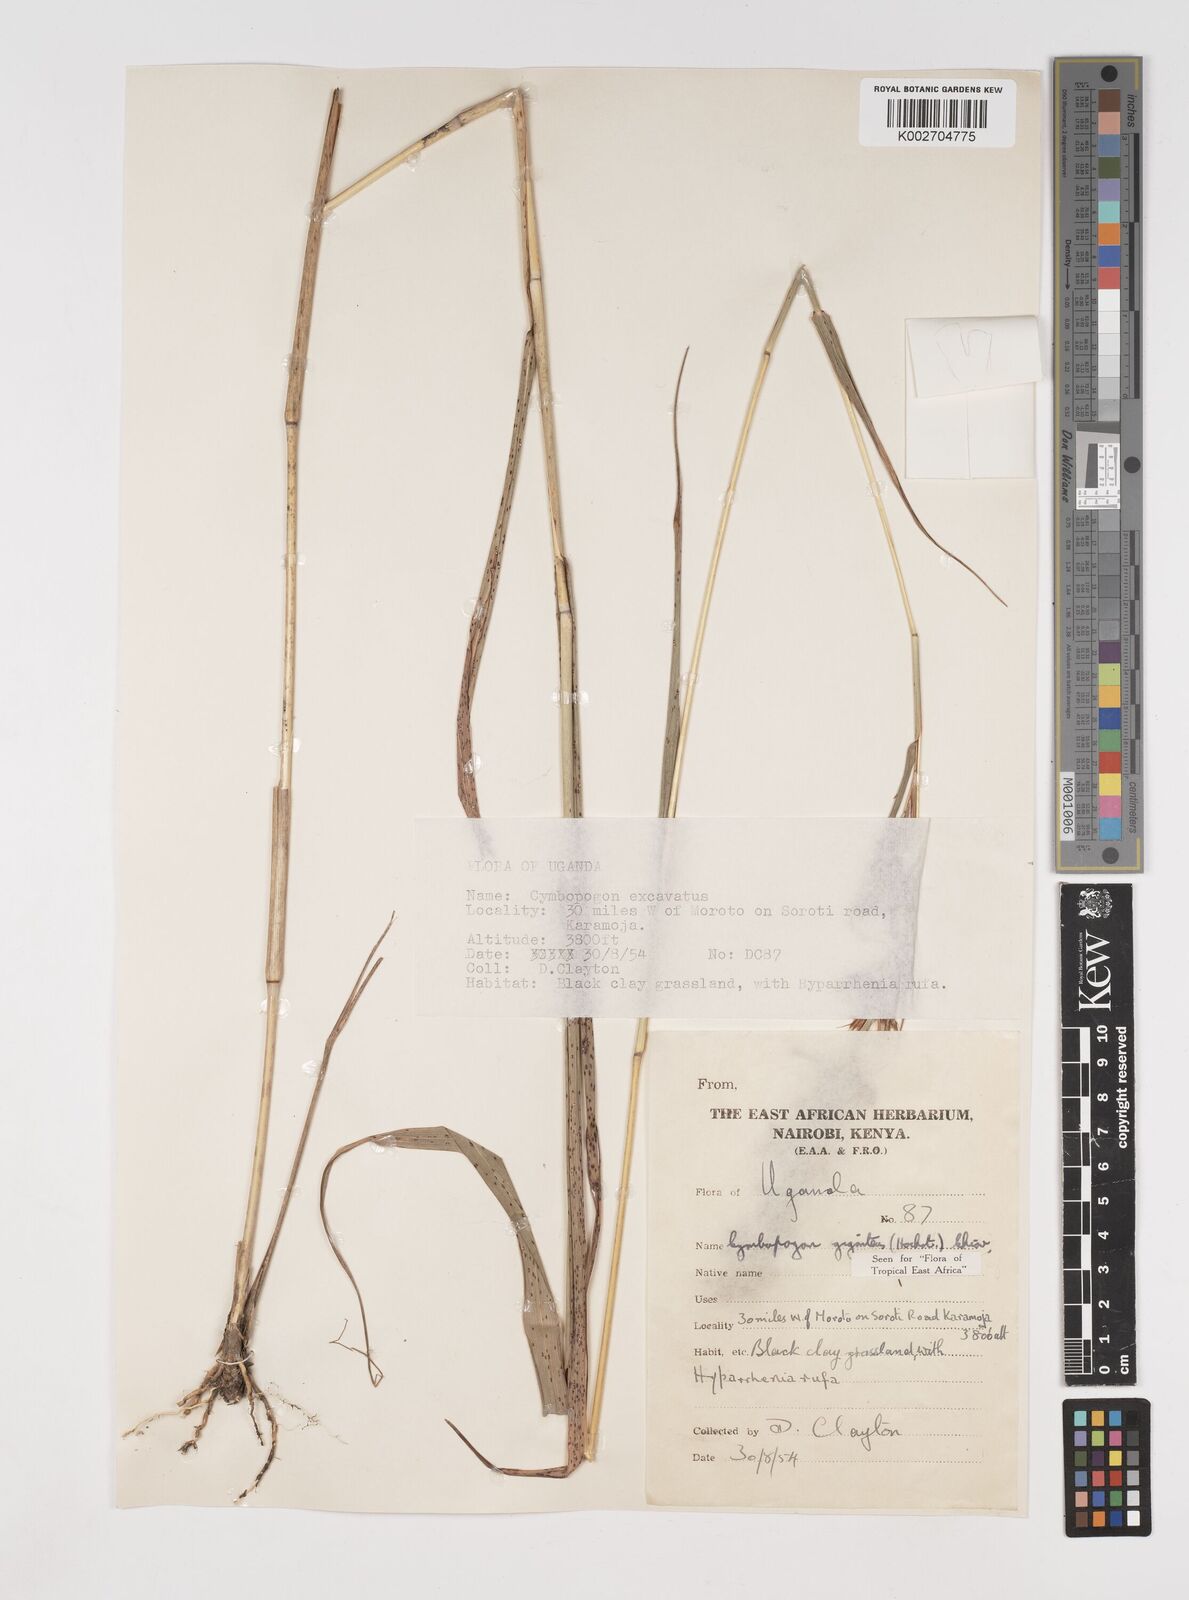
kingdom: Plantae
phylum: Tracheophyta
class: Liliopsida
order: Poales
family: Poaceae
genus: Cymbopogon
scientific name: Cymbopogon giganteus
